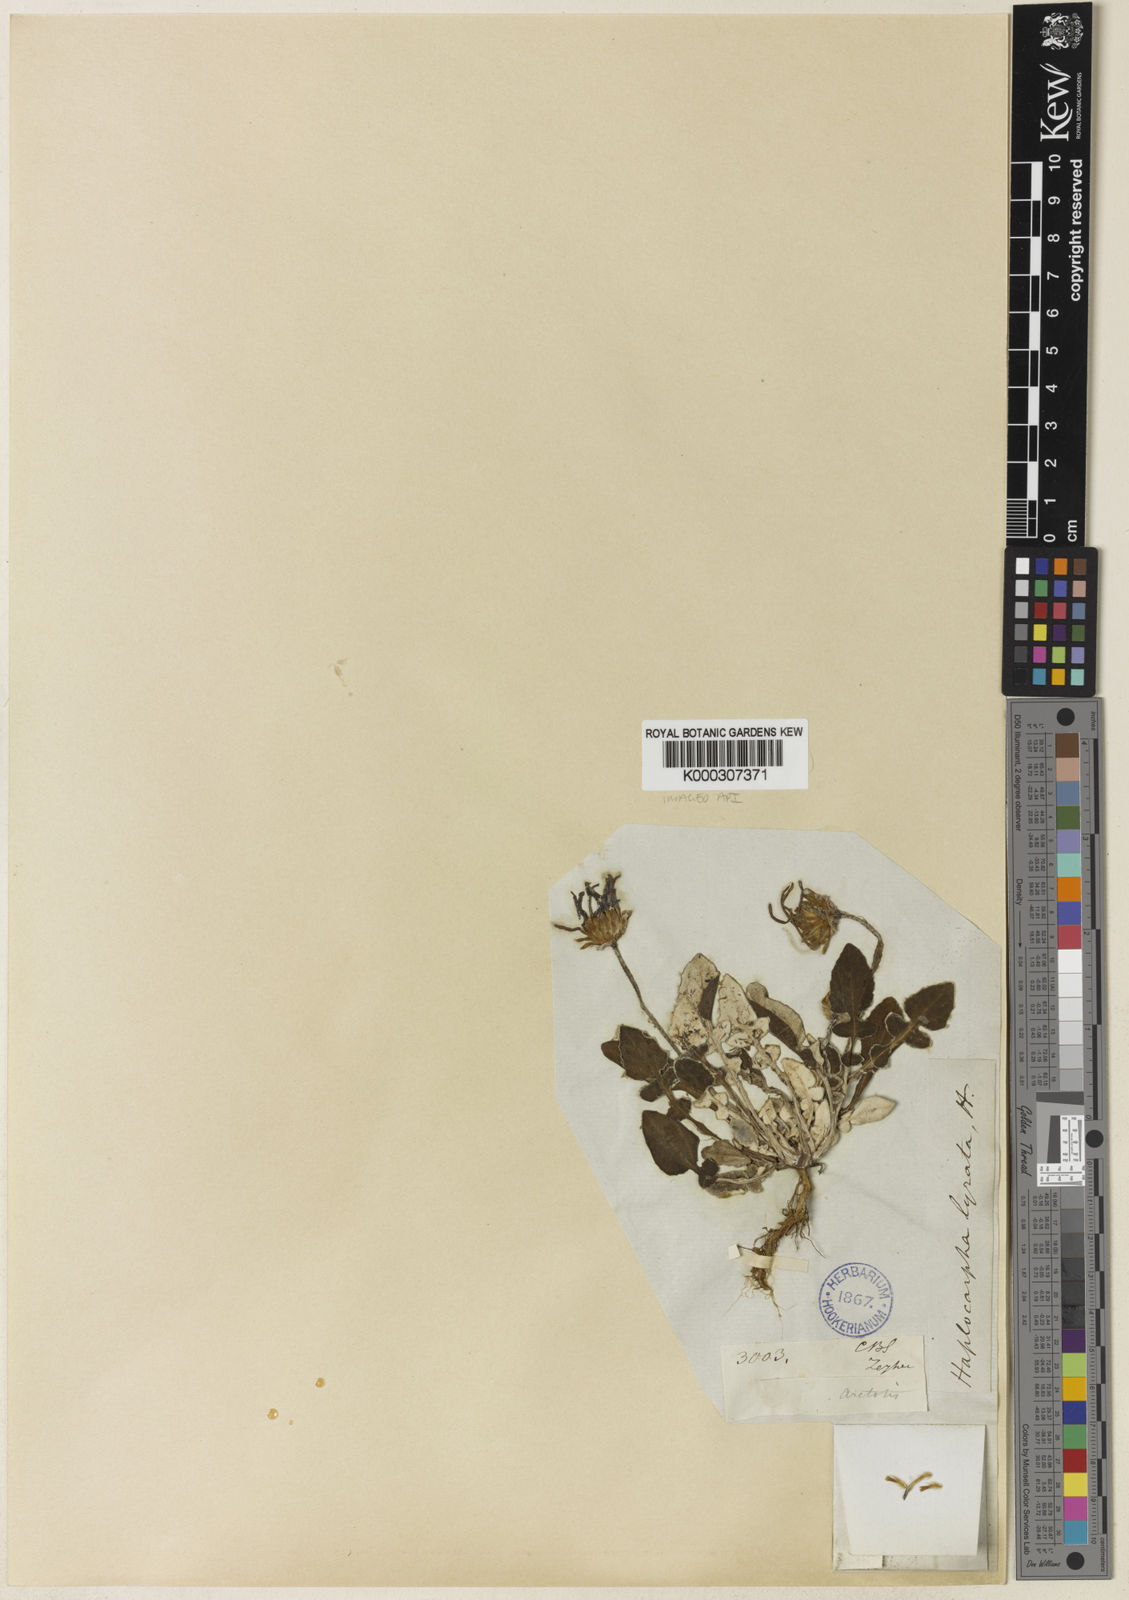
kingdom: Plantae
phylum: Tracheophyta
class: Magnoliopsida
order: Asterales
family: Asteraceae
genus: Haplocarpha
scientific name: Haplocarpha lyrata
